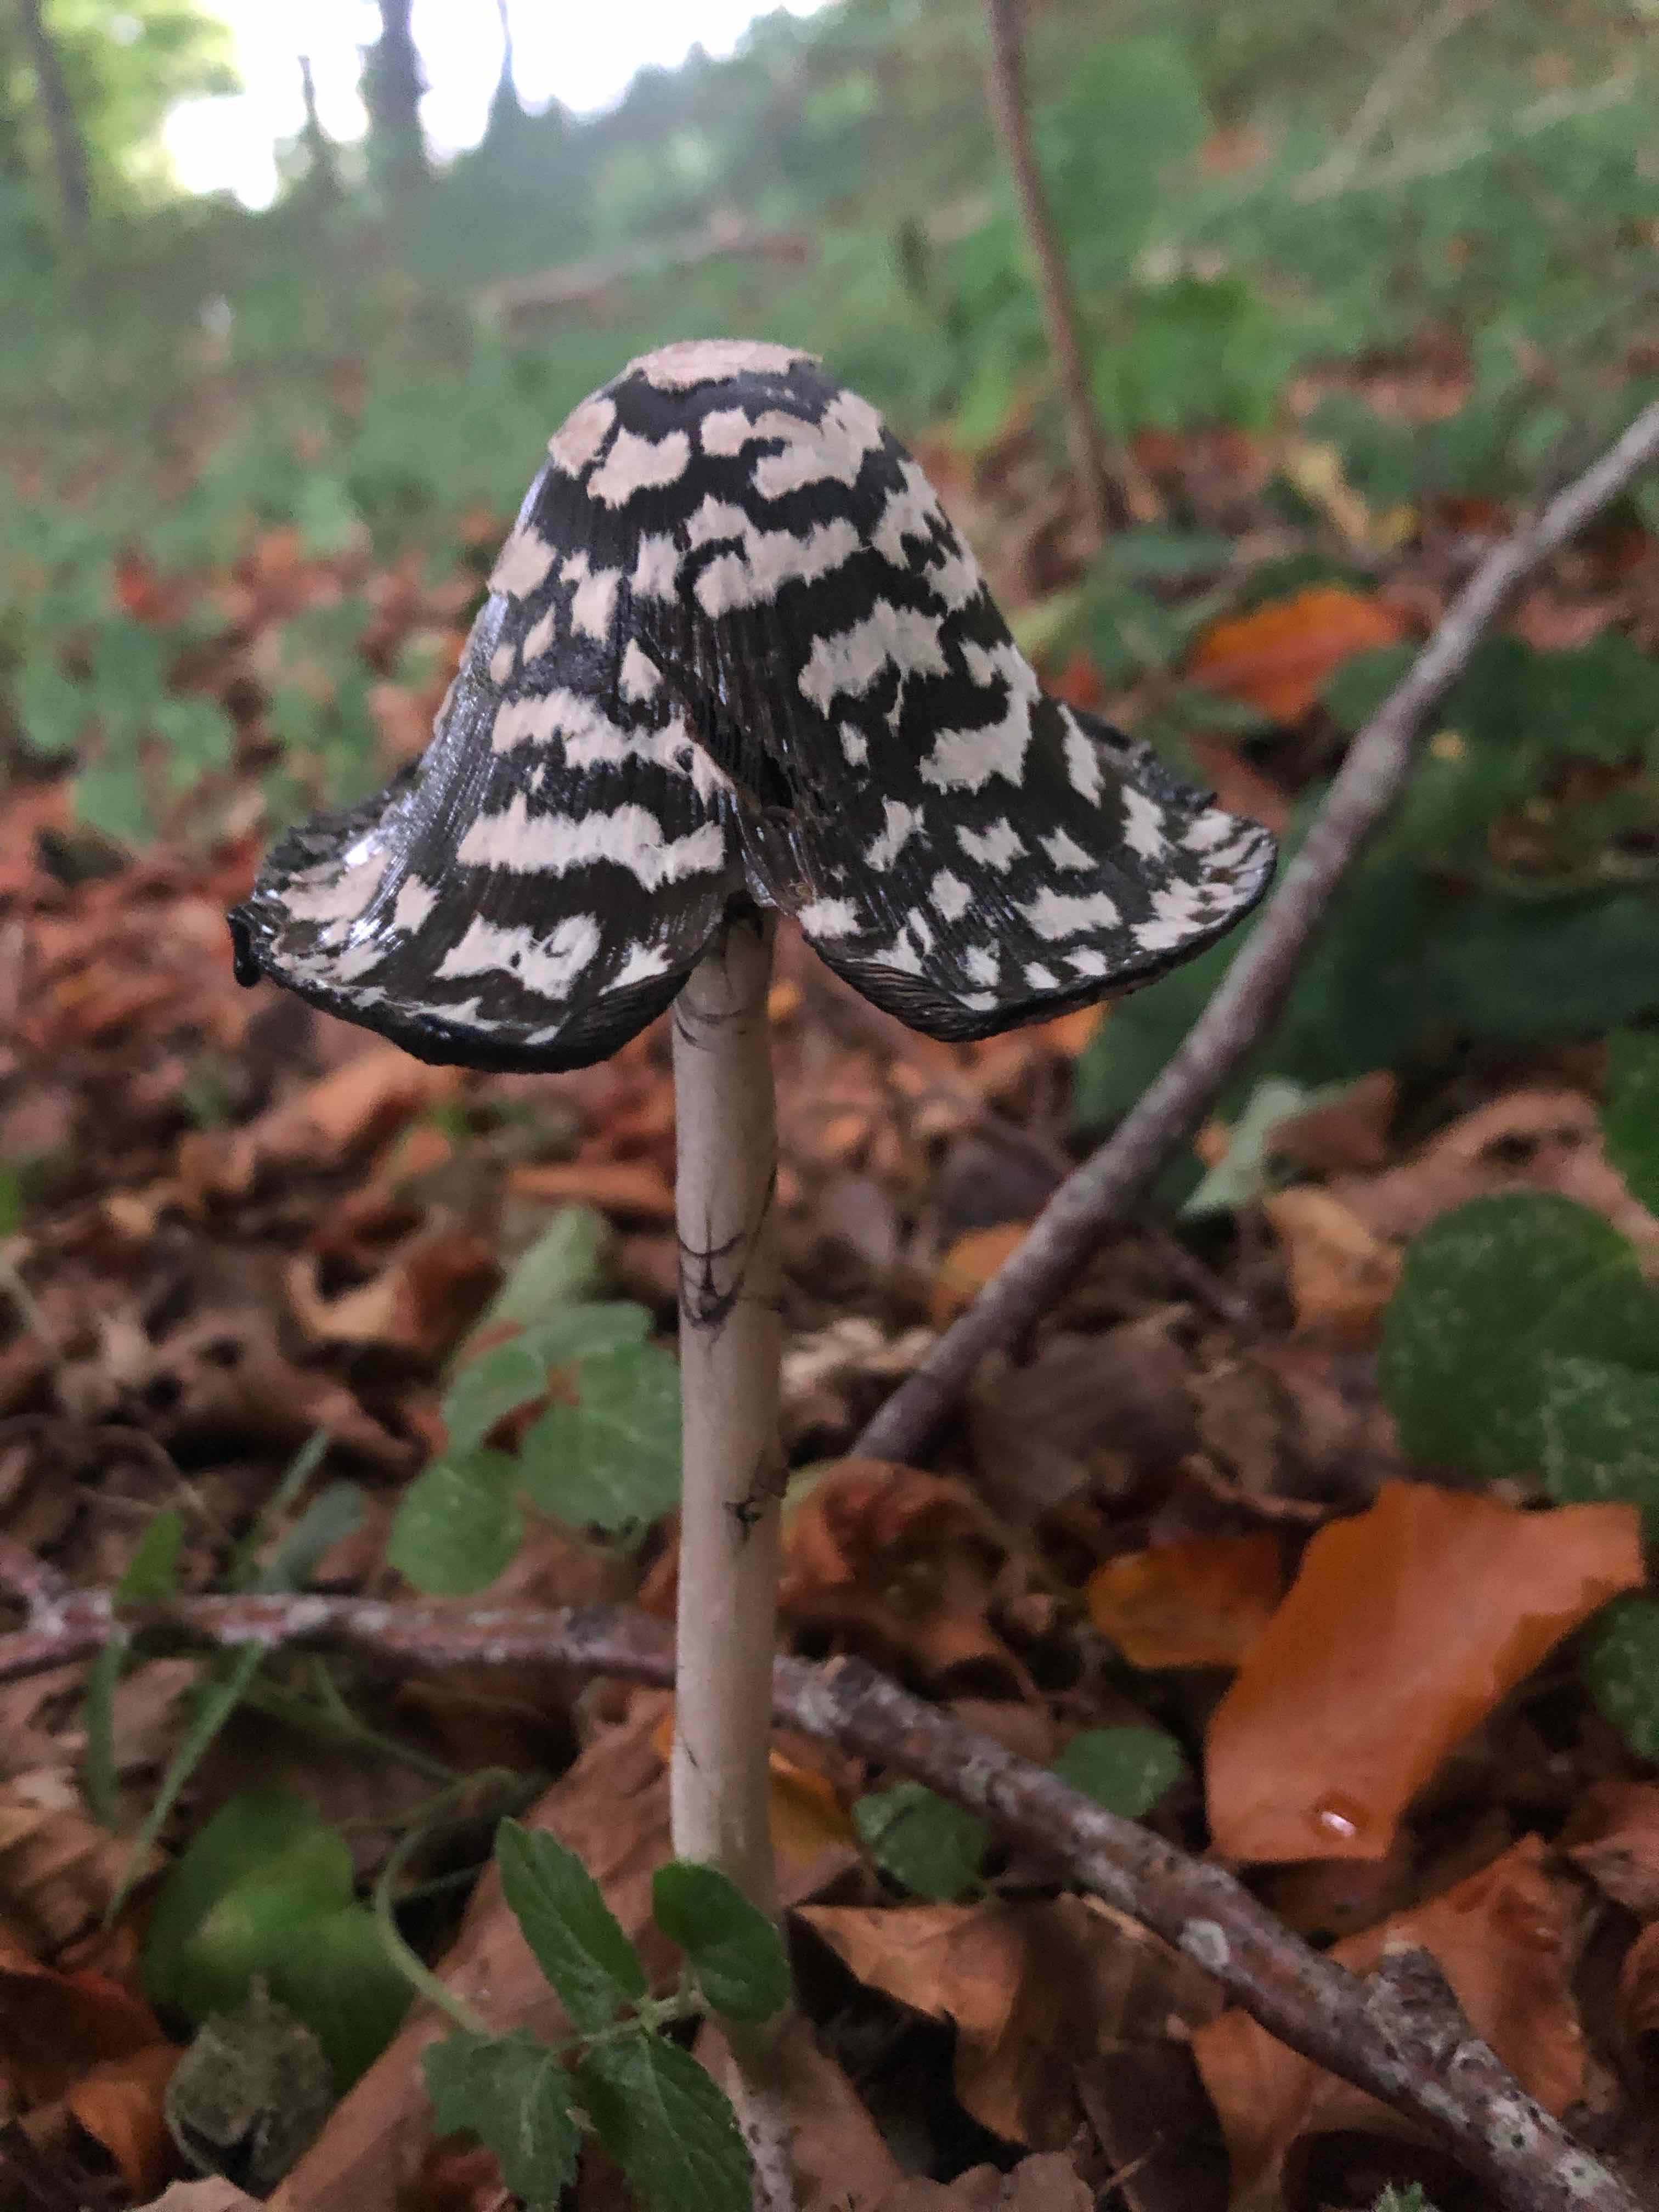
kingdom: Fungi
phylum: Basidiomycota
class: Agaricomycetes
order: Agaricales
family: Psathyrellaceae
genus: Coprinopsis
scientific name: Coprinopsis picacea
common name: skade-blækhat
